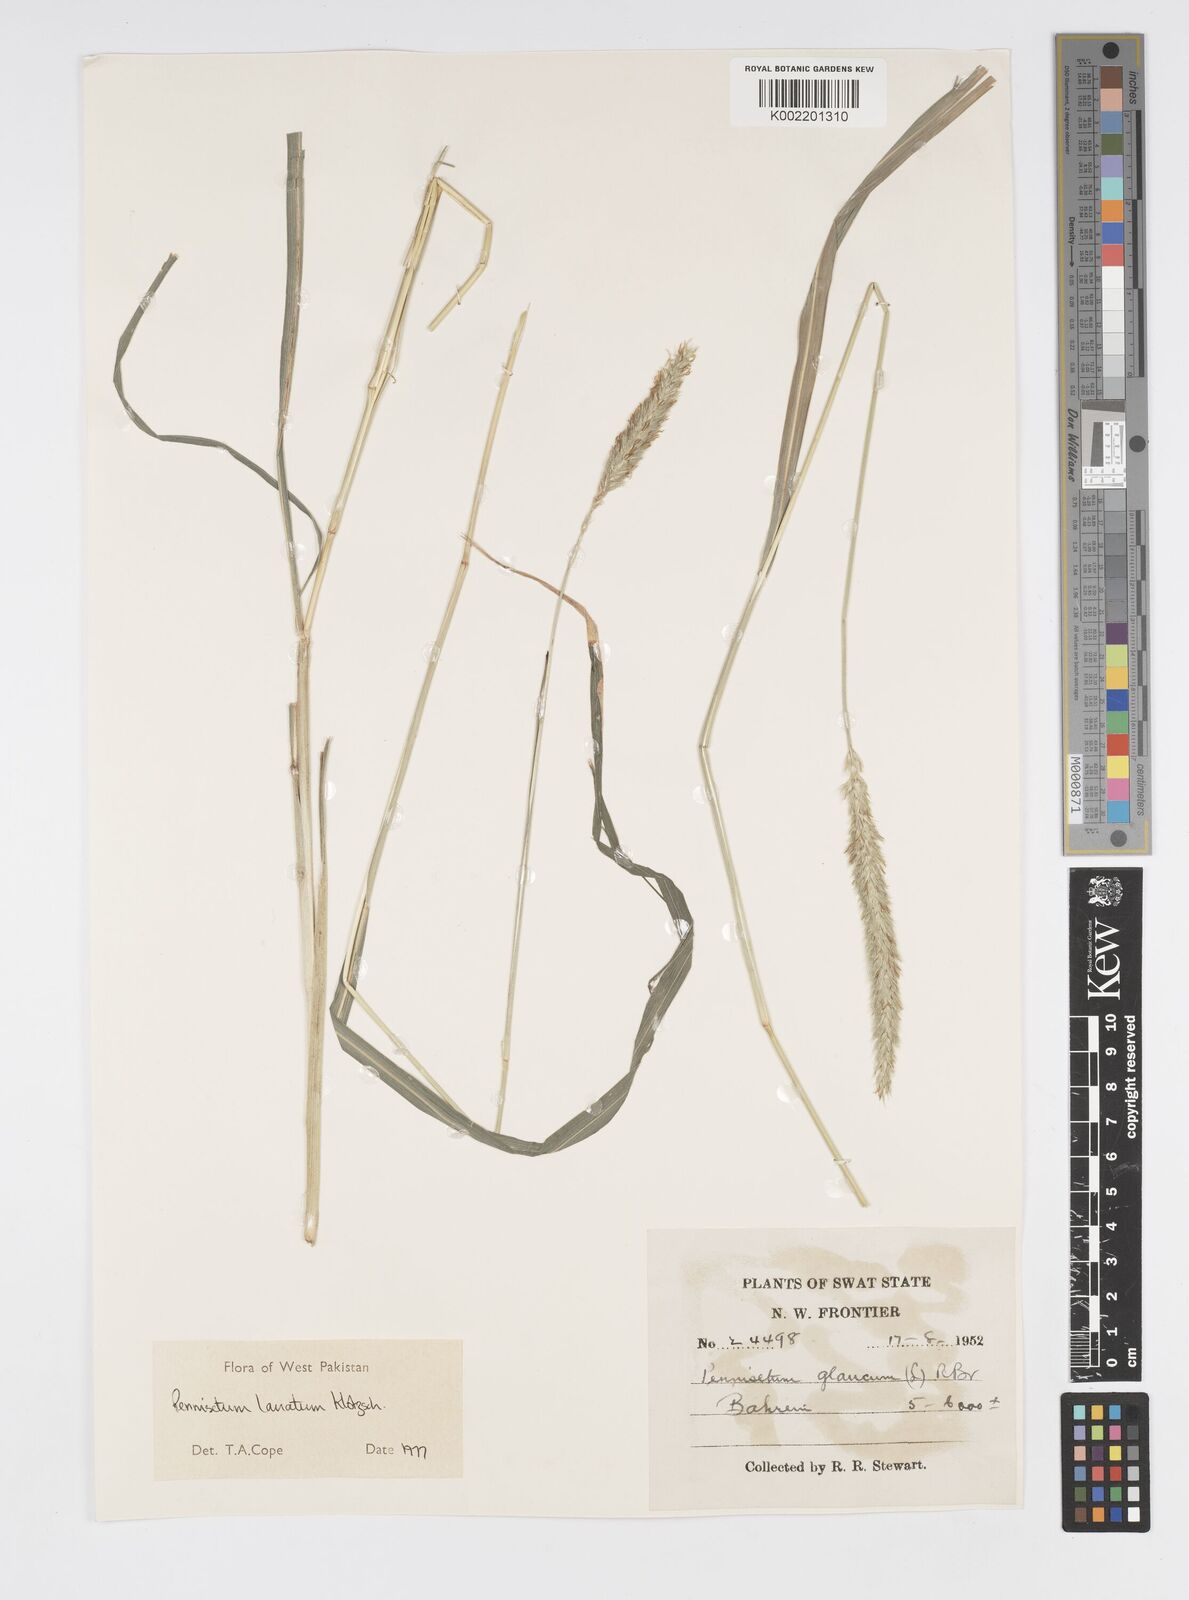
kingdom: Plantae
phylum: Tracheophyta
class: Liliopsida
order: Poales
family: Poaceae
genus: Cenchrus
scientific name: Cenchrus lanatus
